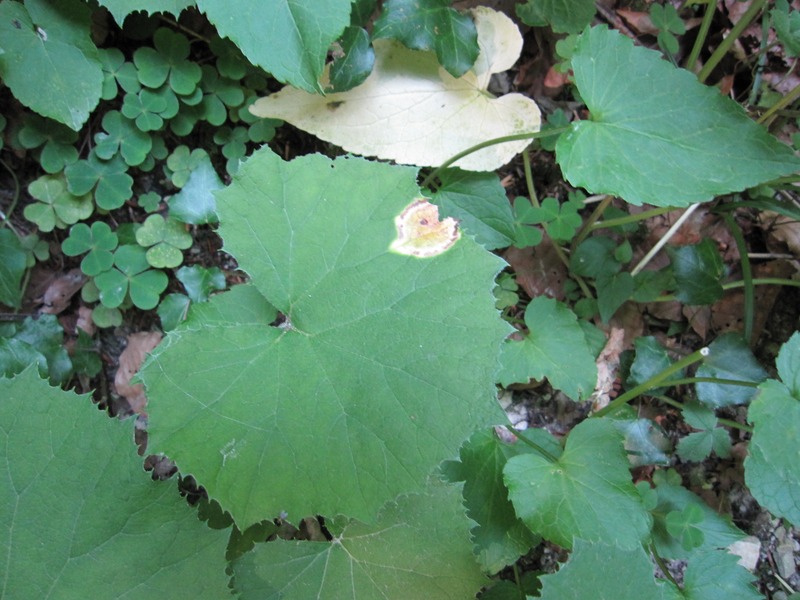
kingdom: Fungi
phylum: Basidiomycota
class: Pucciniomycetes
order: Pucciniales
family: Pucciniaceae
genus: Puccinia
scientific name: Puccinia poarum
